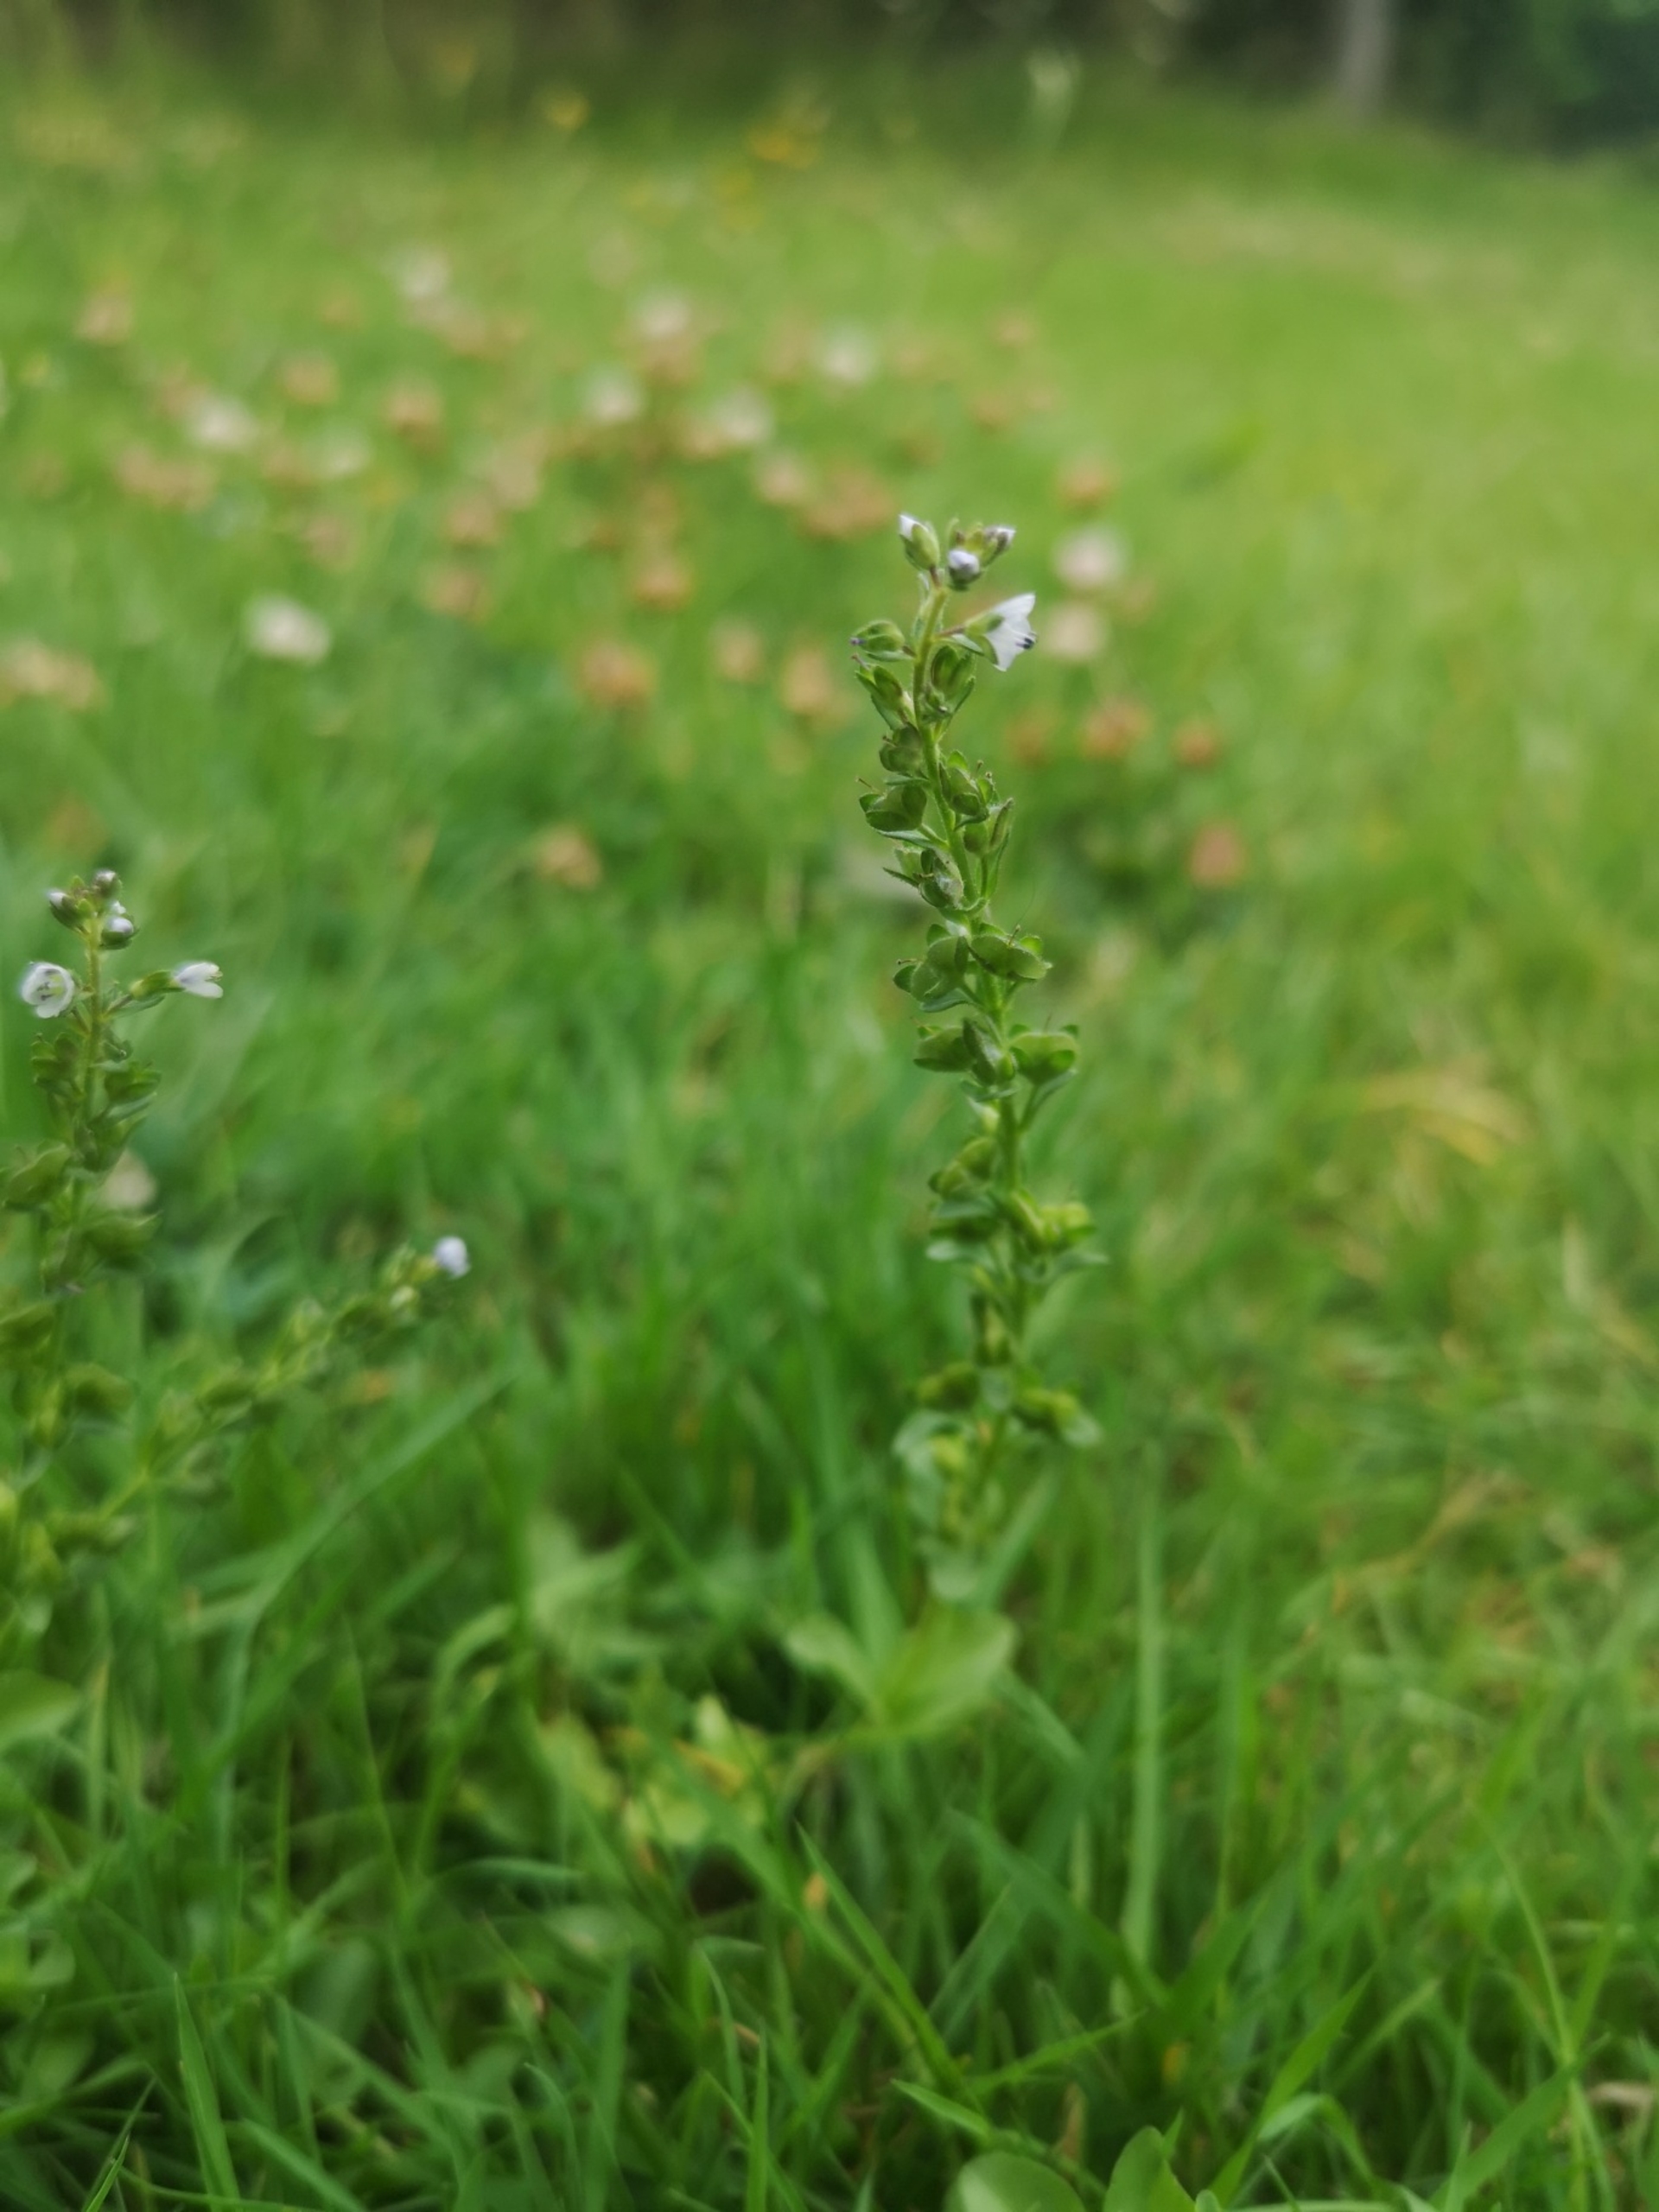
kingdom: Plantae
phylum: Tracheophyta
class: Magnoliopsida
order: Lamiales
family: Plantaginaceae
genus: Veronica
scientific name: Veronica serpyllifolia
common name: Glat ærenpris
